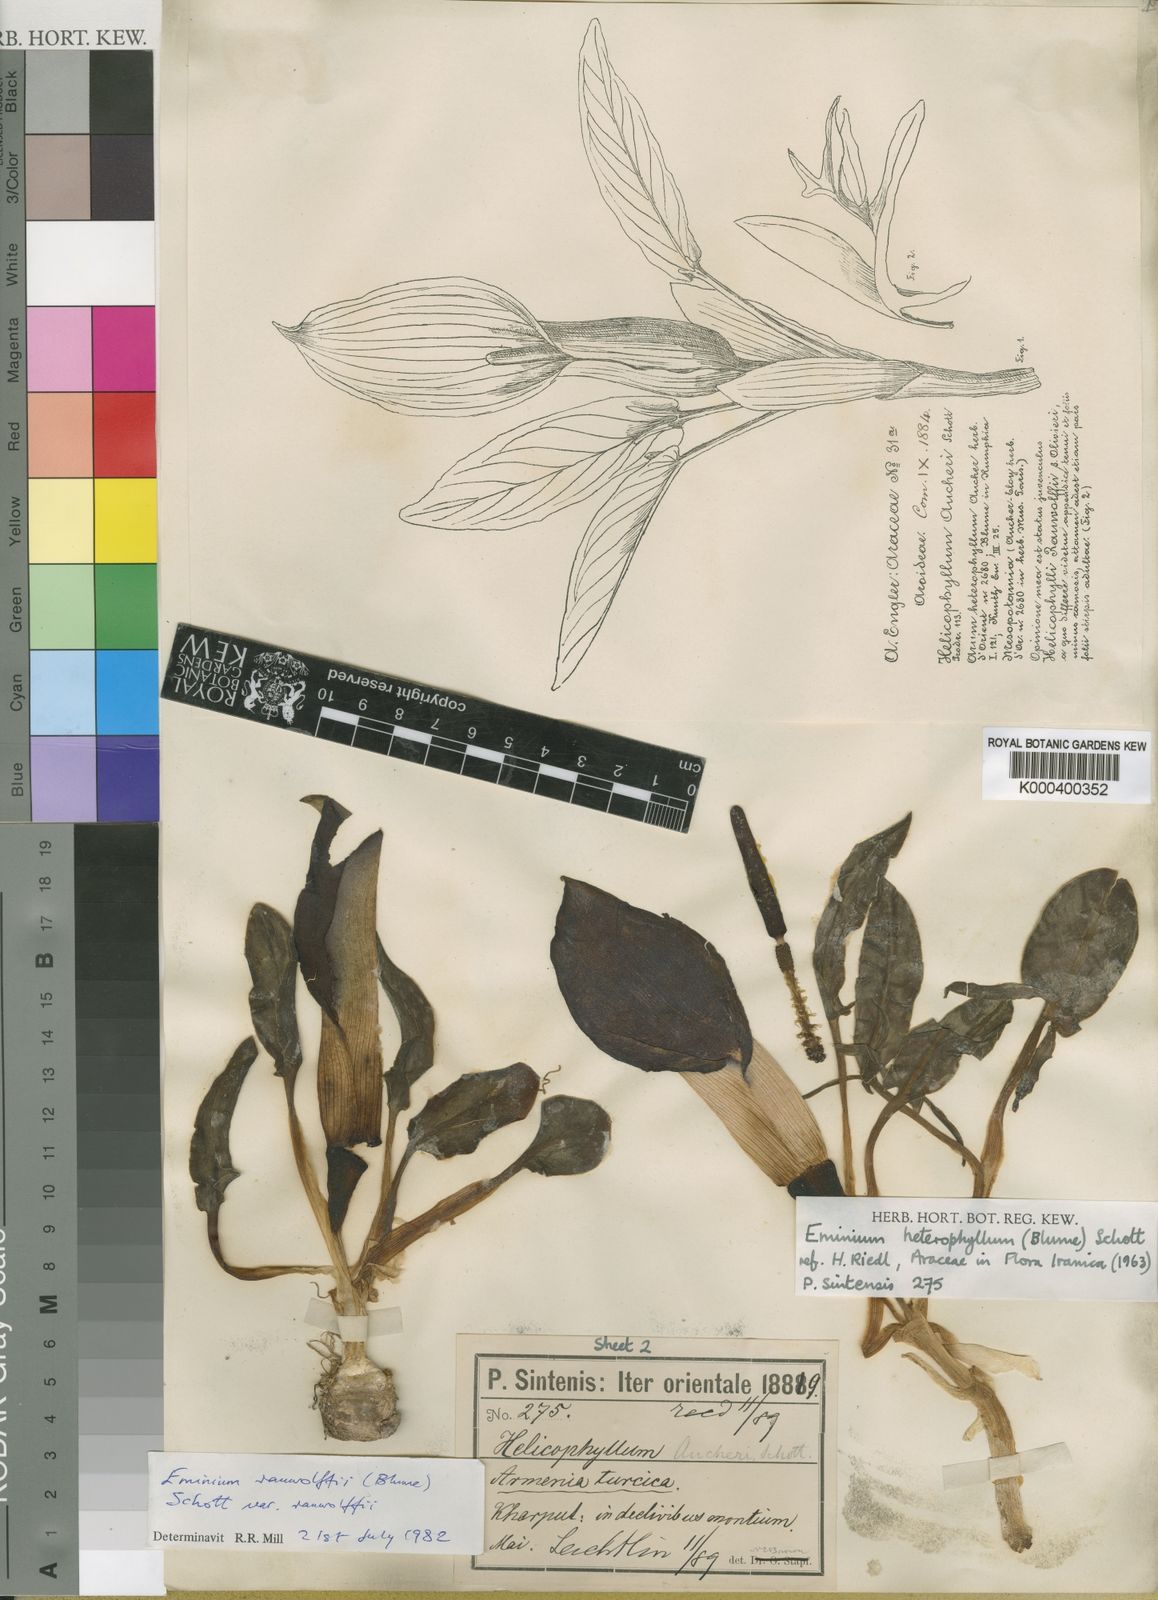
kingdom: Plantae
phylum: Tracheophyta
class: Liliopsida
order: Alismatales
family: Araceae
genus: Eminium
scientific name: Eminium rauwolffii
